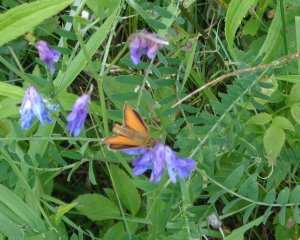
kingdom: Animalia
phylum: Arthropoda
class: Insecta
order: Lepidoptera
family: Hesperiidae
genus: Thymelicus
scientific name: Thymelicus lineola
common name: European Skipper
